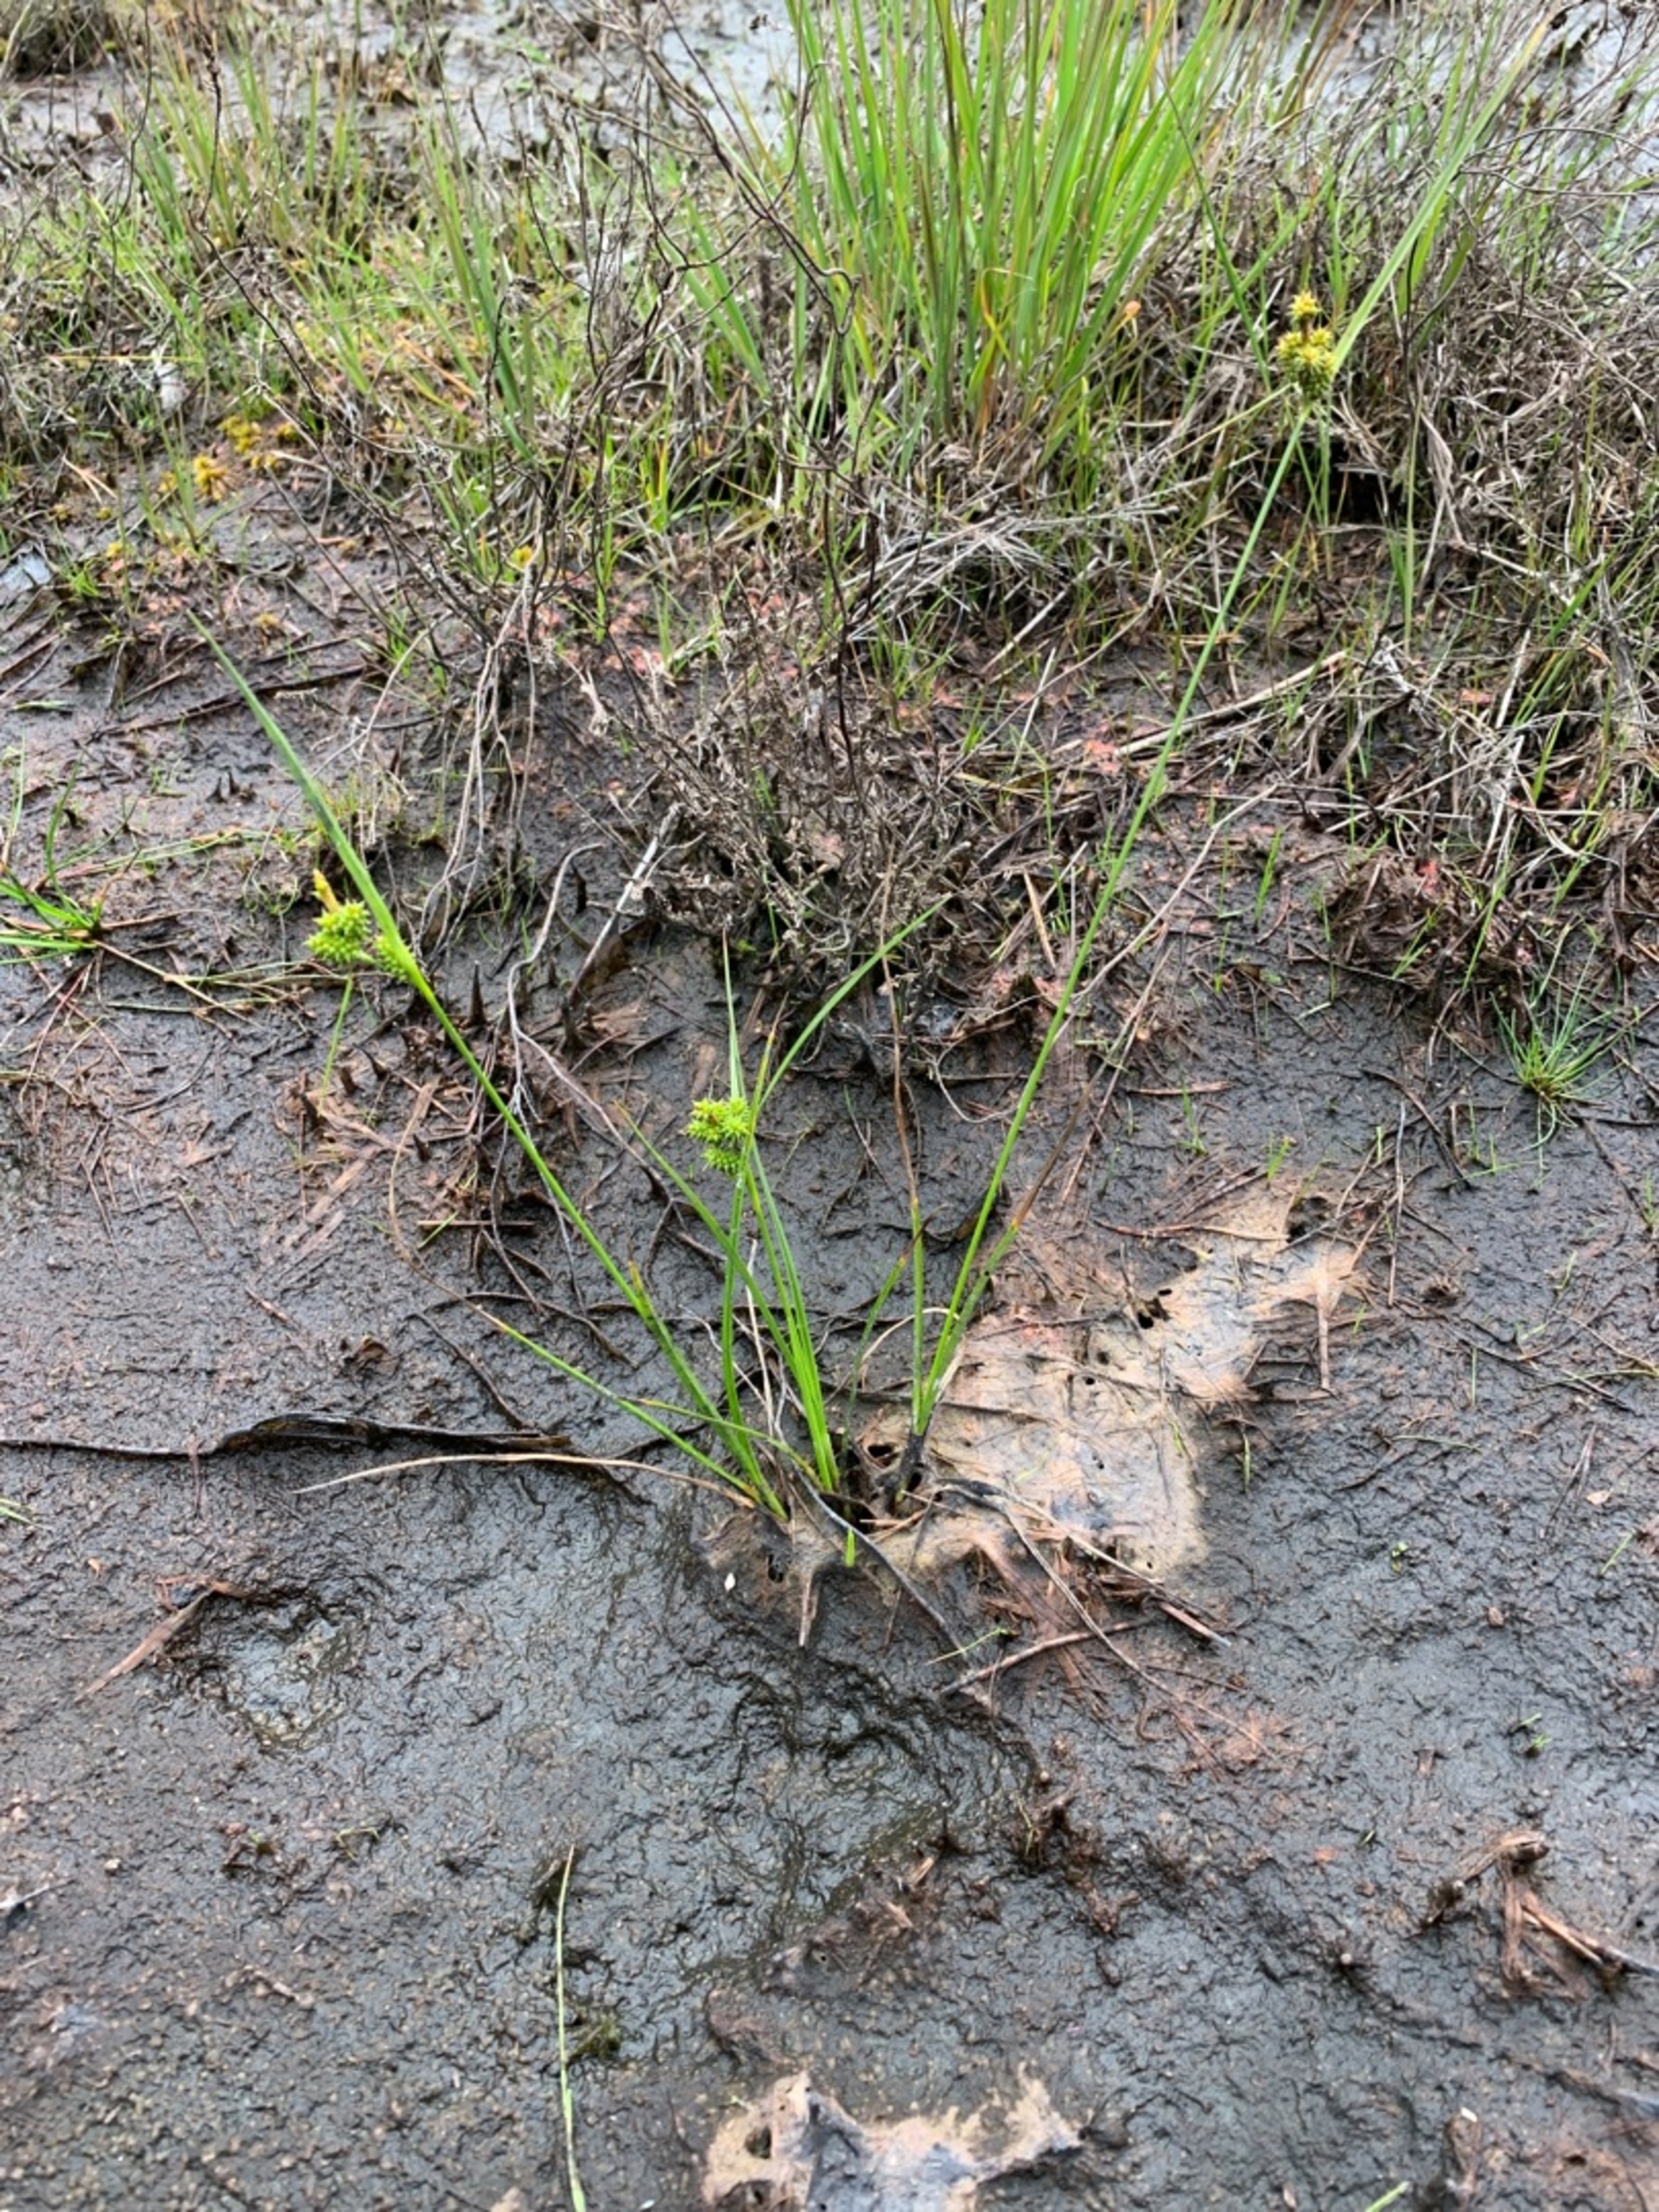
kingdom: Plantae
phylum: Tracheophyta
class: Liliopsida
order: Poales
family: Cyperaceae
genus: Carex
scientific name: Carex oederi
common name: Dværg-star
